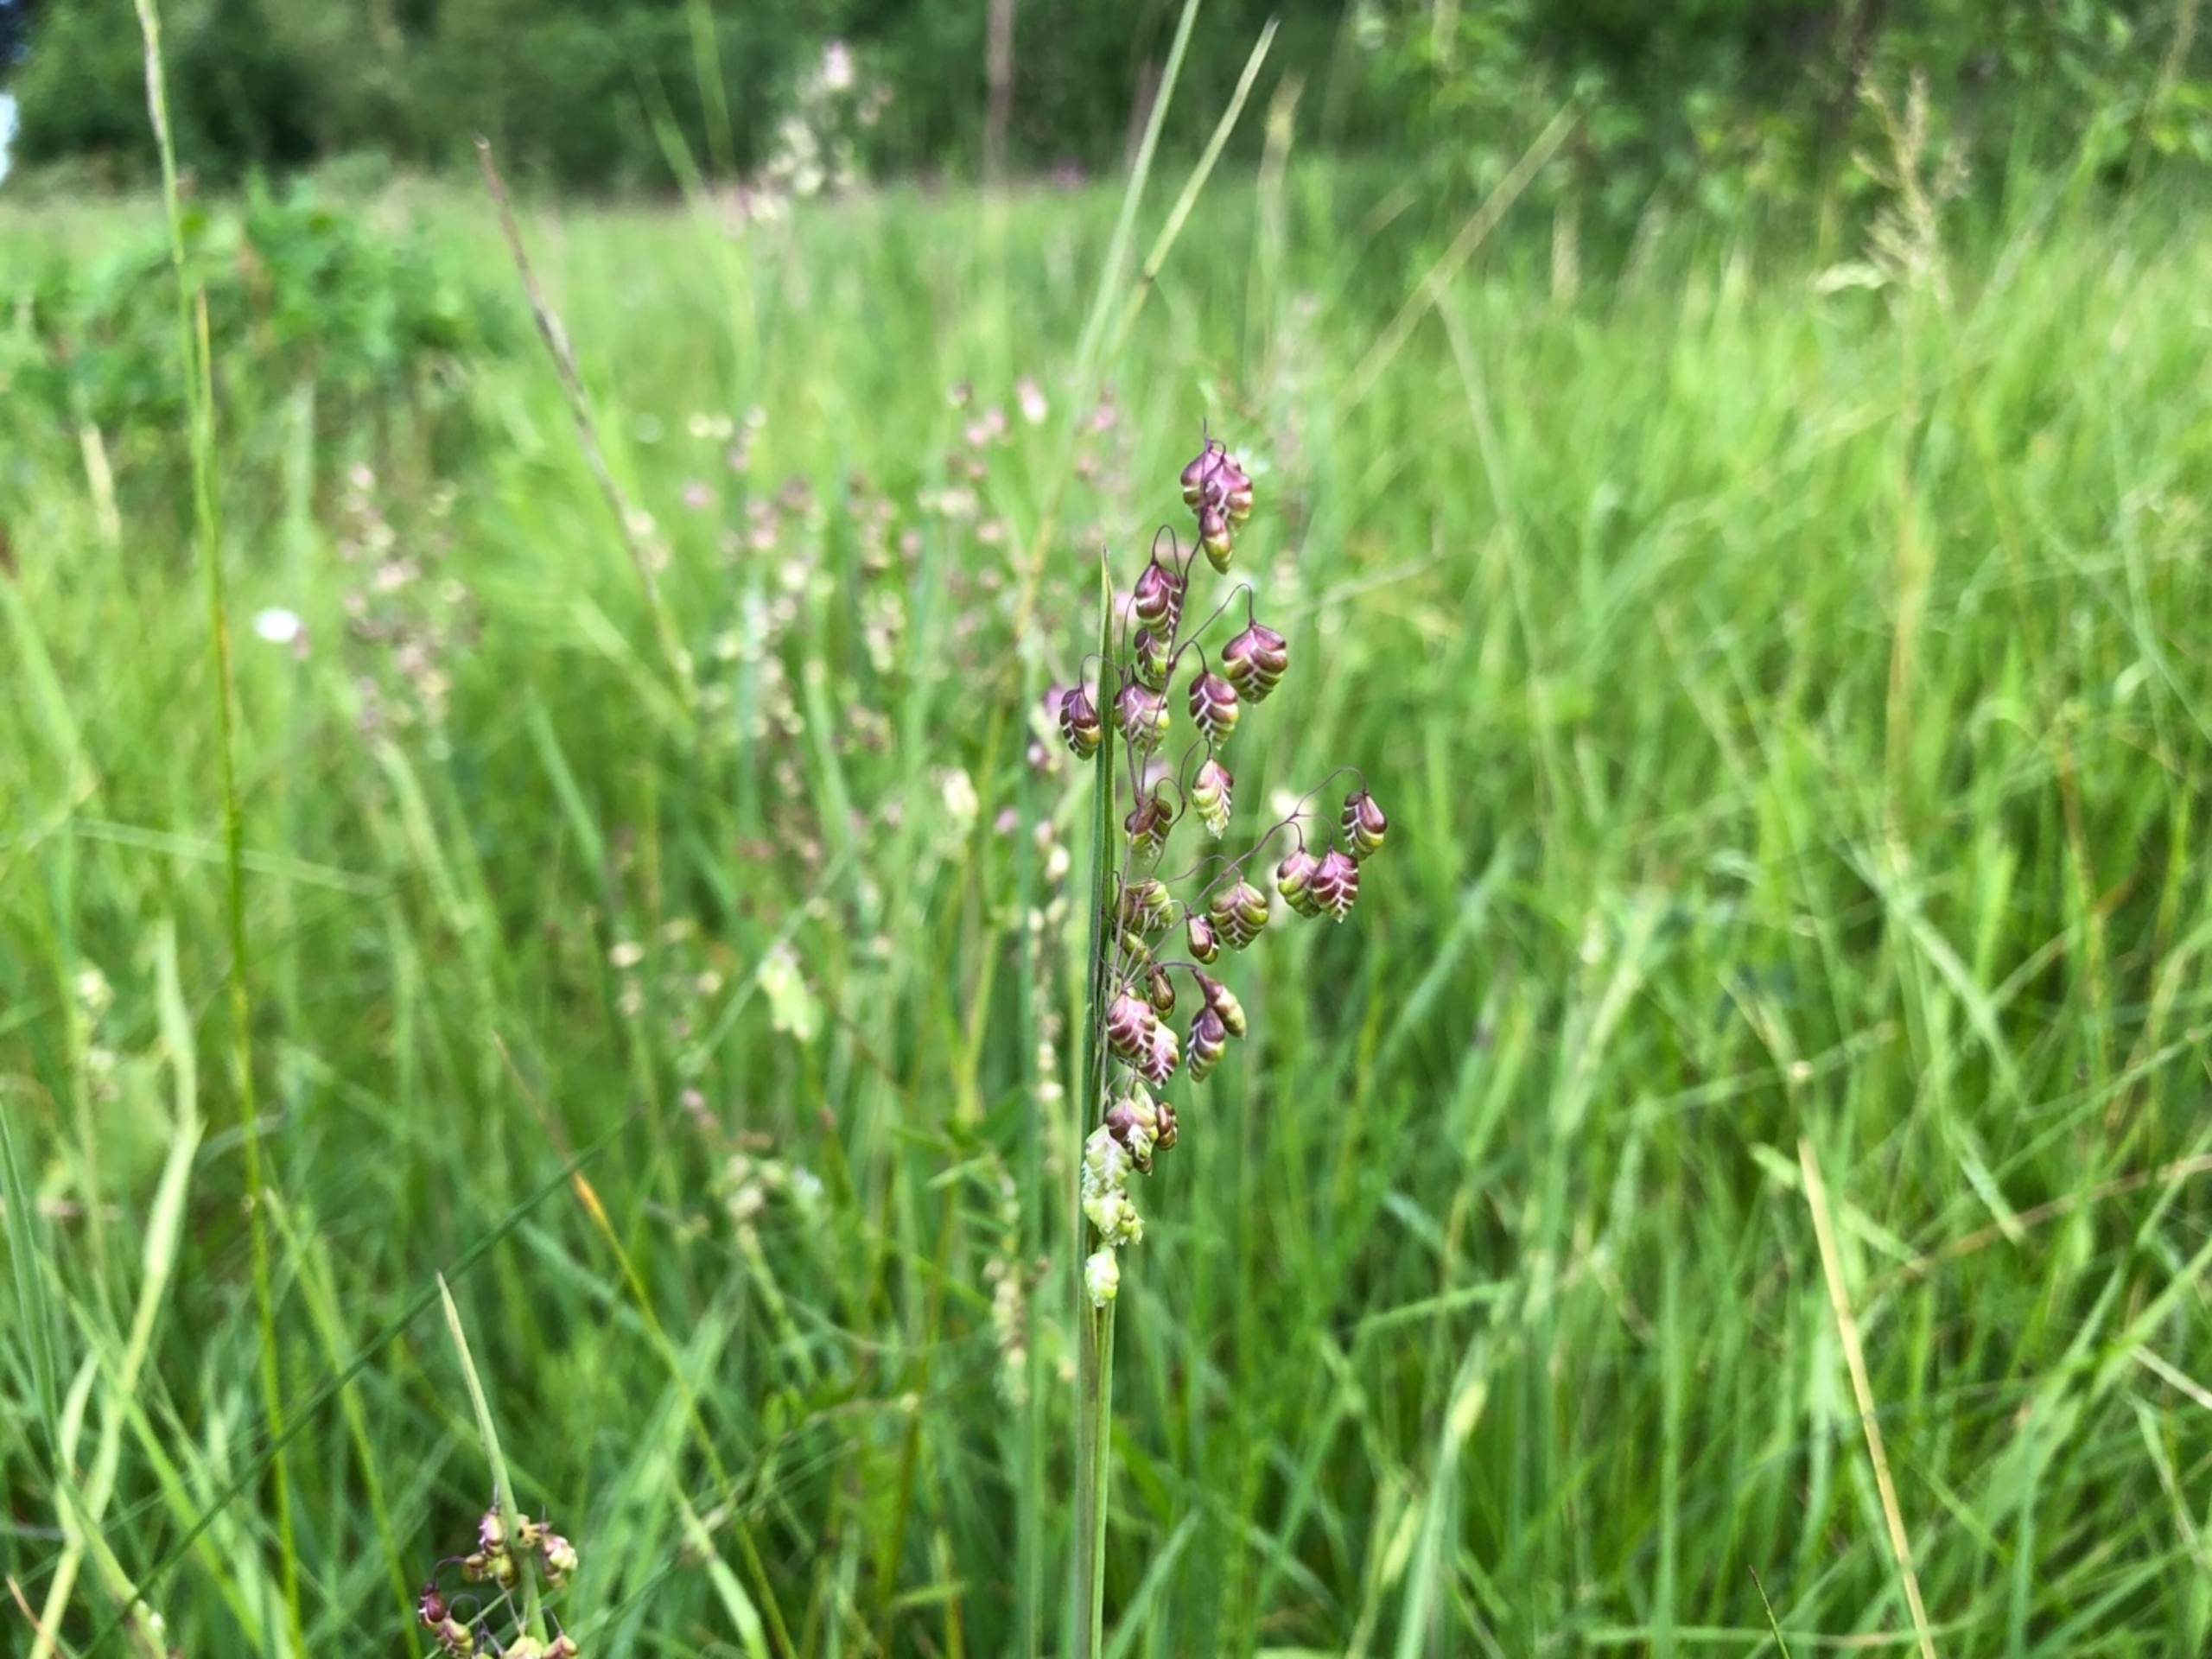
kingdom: Plantae
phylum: Tracheophyta
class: Liliopsida
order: Poales
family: Poaceae
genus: Briza
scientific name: Briza media
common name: Hjertegræs
